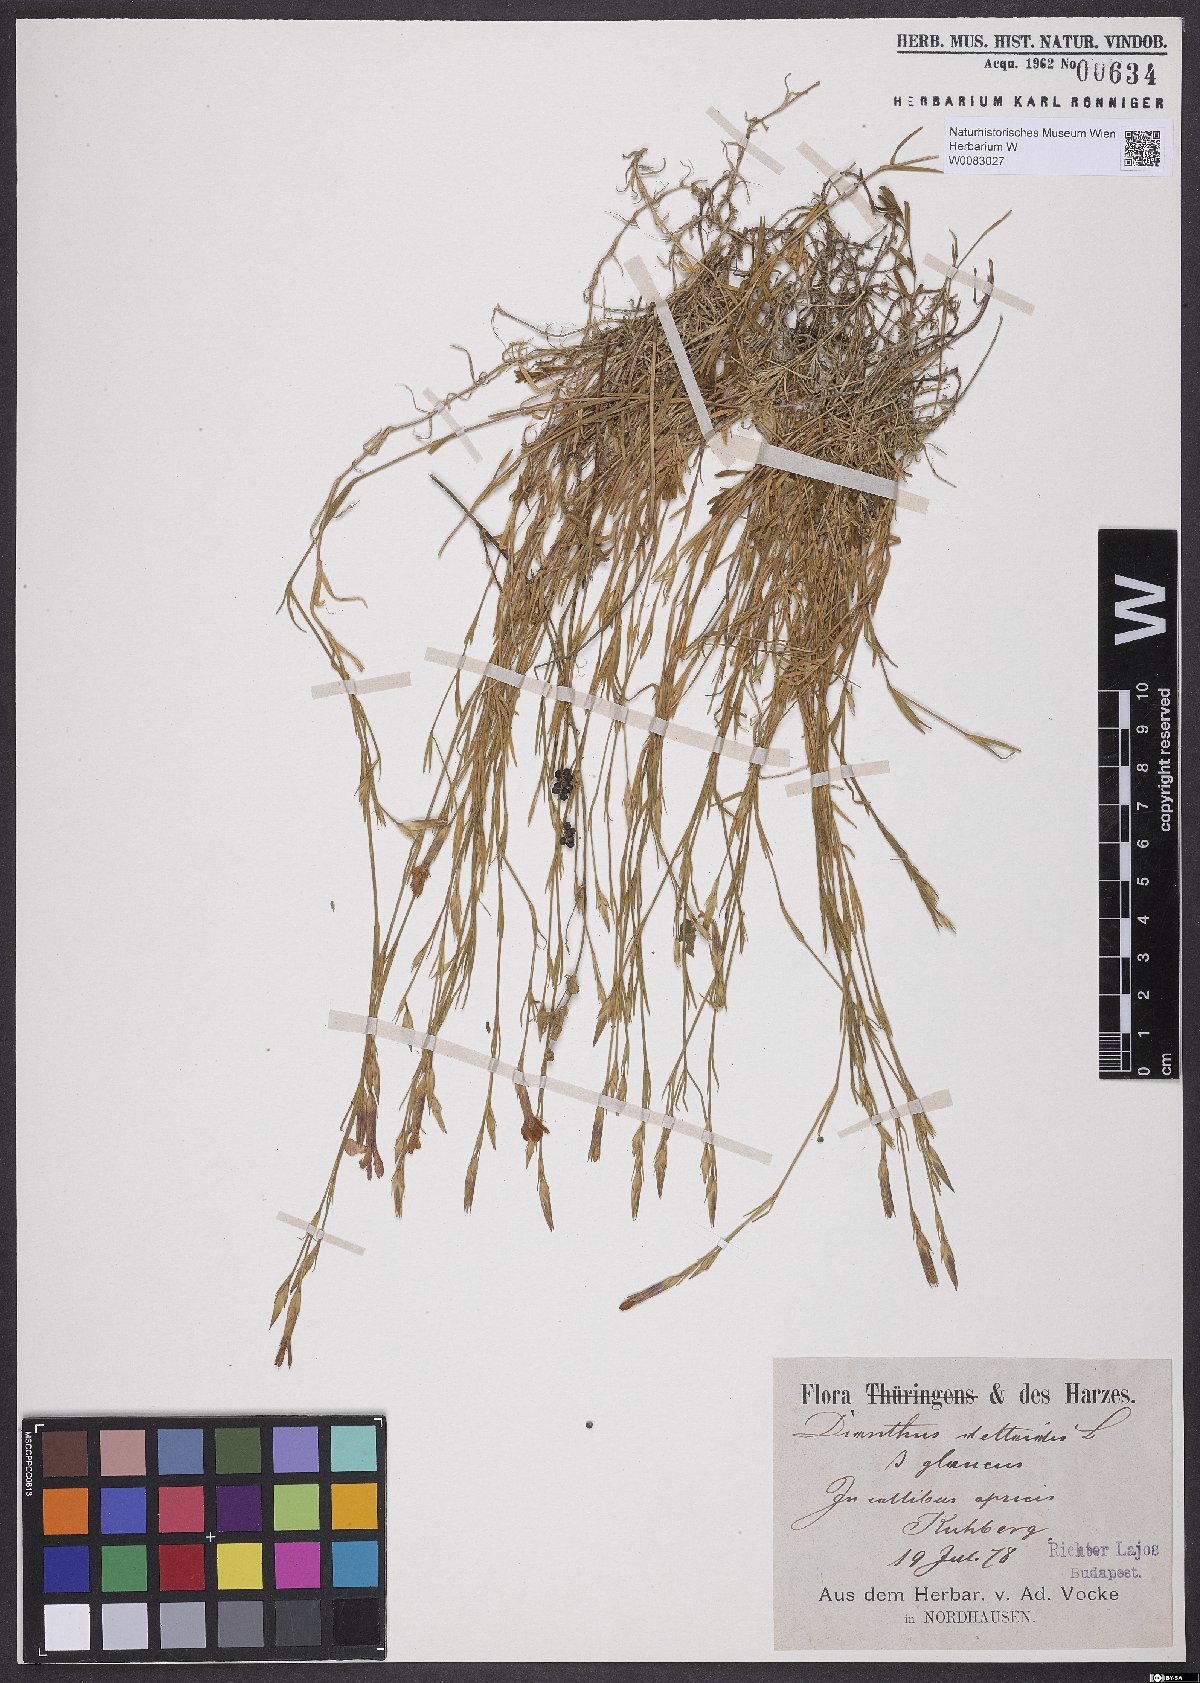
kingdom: Plantae
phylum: Tracheophyta
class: Magnoliopsida
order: Caryophyllales
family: Caryophyllaceae
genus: Dianthus
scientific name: Dianthus deltoides
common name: Maiden pink
